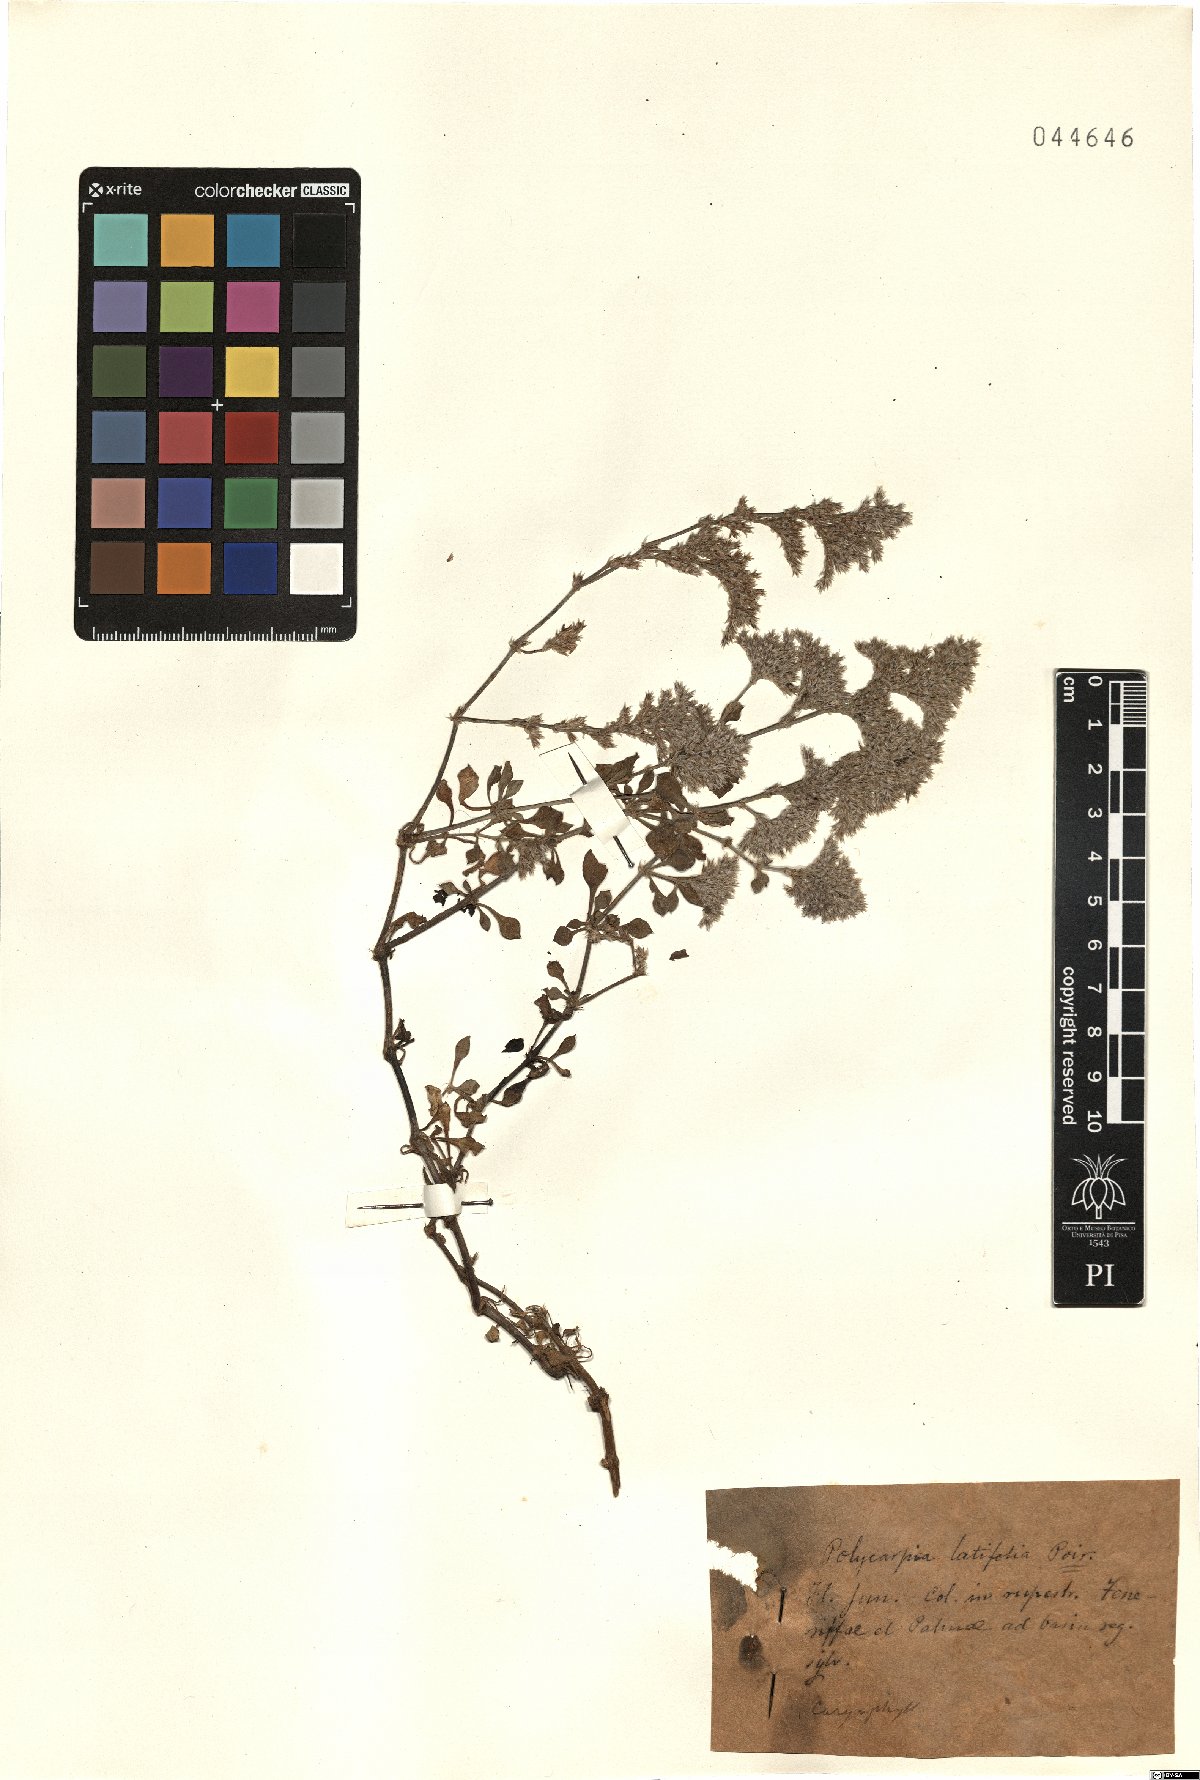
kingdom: Plantae
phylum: Tracheophyta
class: Magnoliopsida
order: Caryophyllales
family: Caryophyllaceae
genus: Polycarpaea
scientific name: Polycarpaea latifolia
